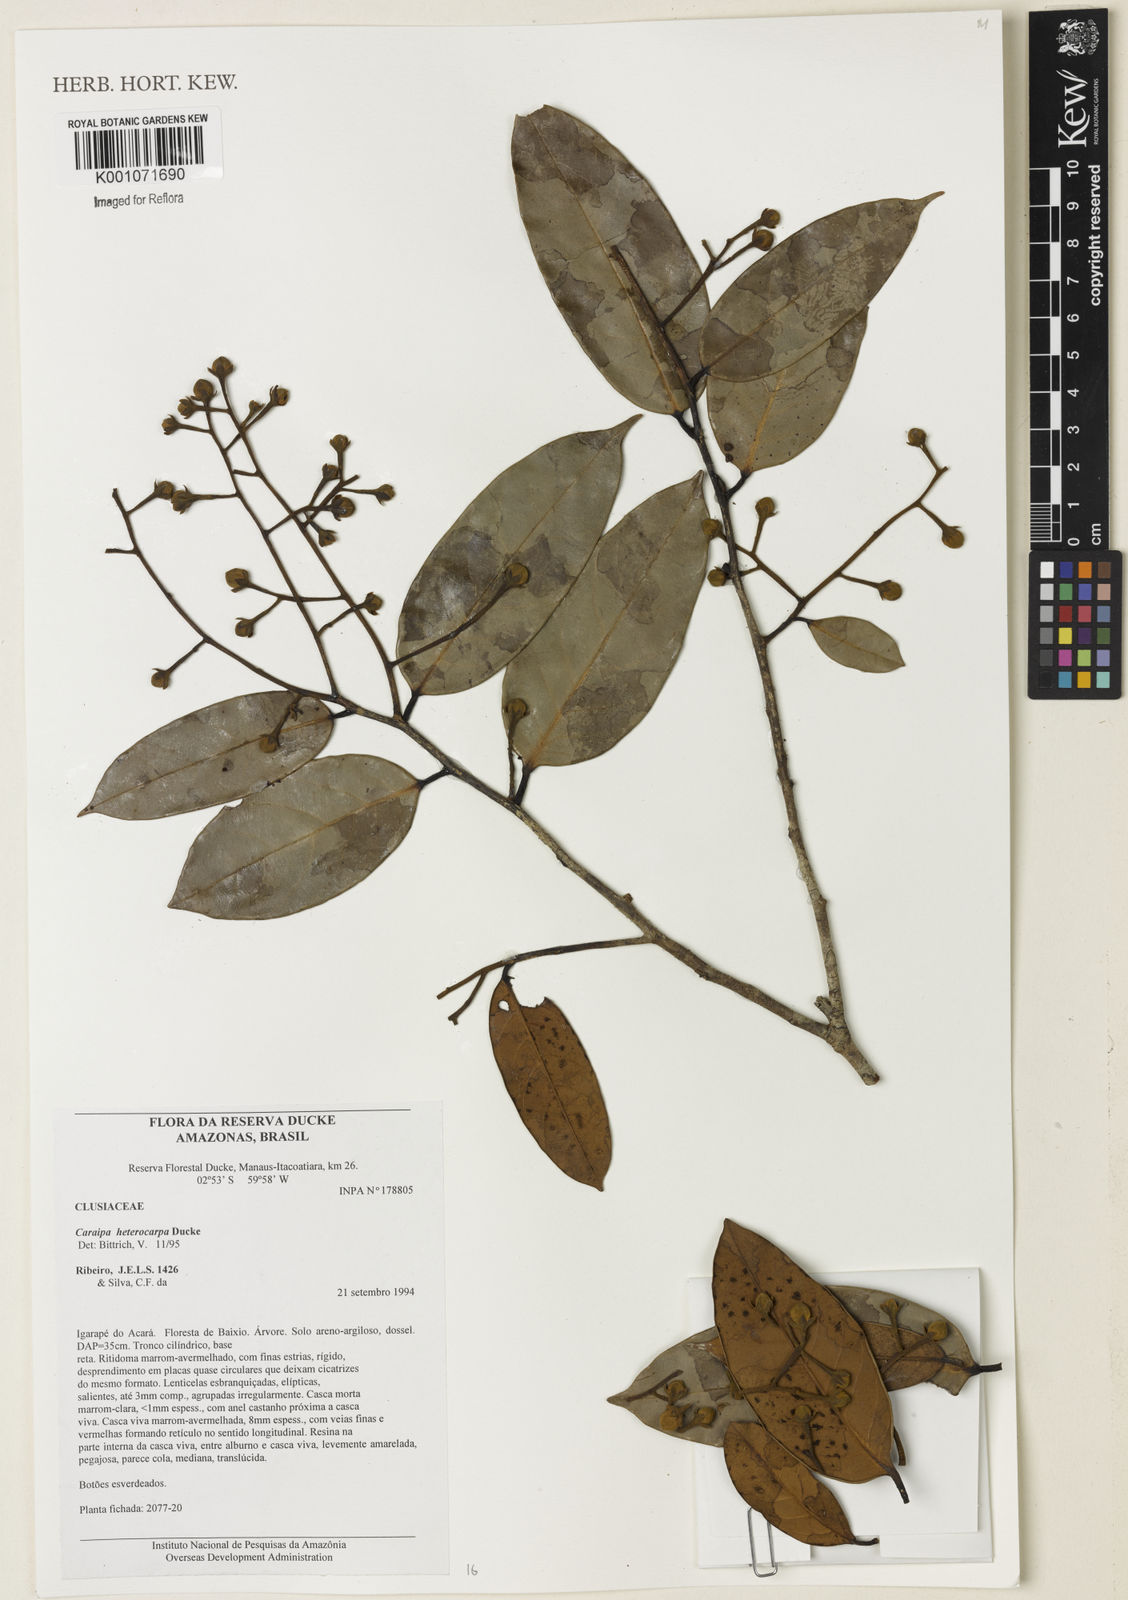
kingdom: Plantae
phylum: Tracheophyta
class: Magnoliopsida
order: Malpighiales
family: Calophyllaceae
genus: Caraipa
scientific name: Caraipa heterocarpa
